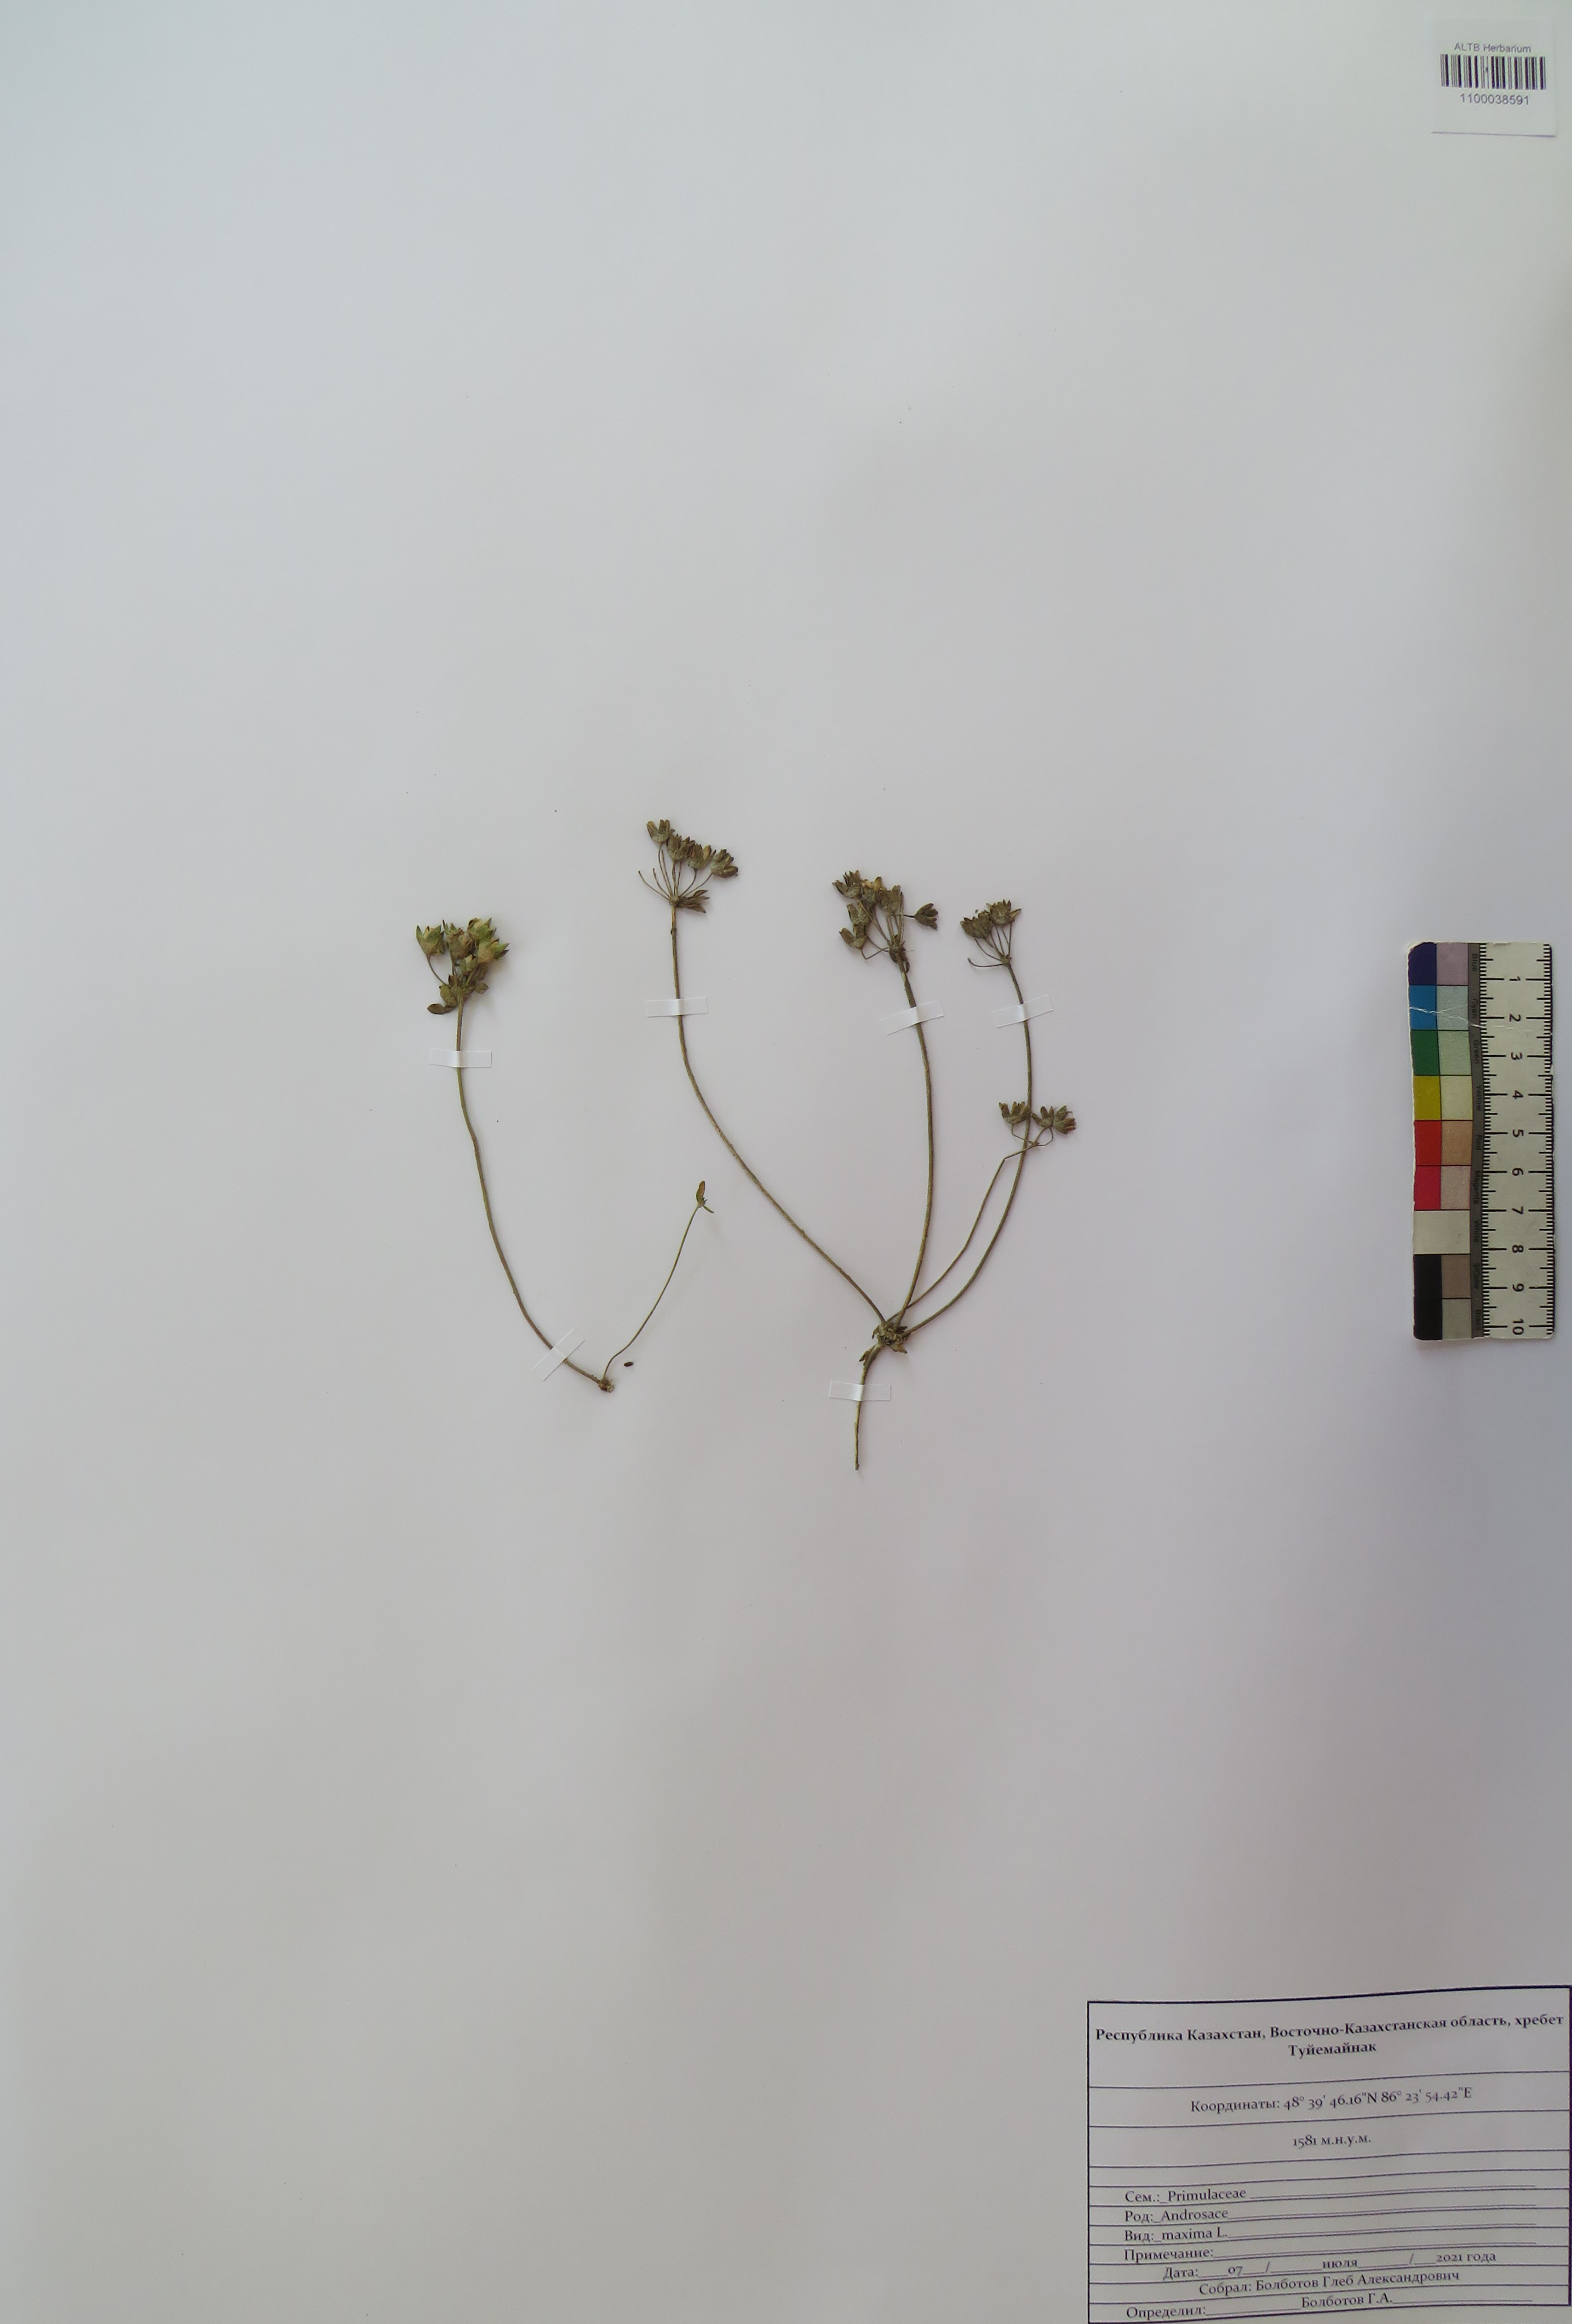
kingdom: Plantae
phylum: Tracheophyta
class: Magnoliopsida
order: Ericales
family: Primulaceae
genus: Androsace
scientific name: Androsace maxima
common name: Annual androsace
